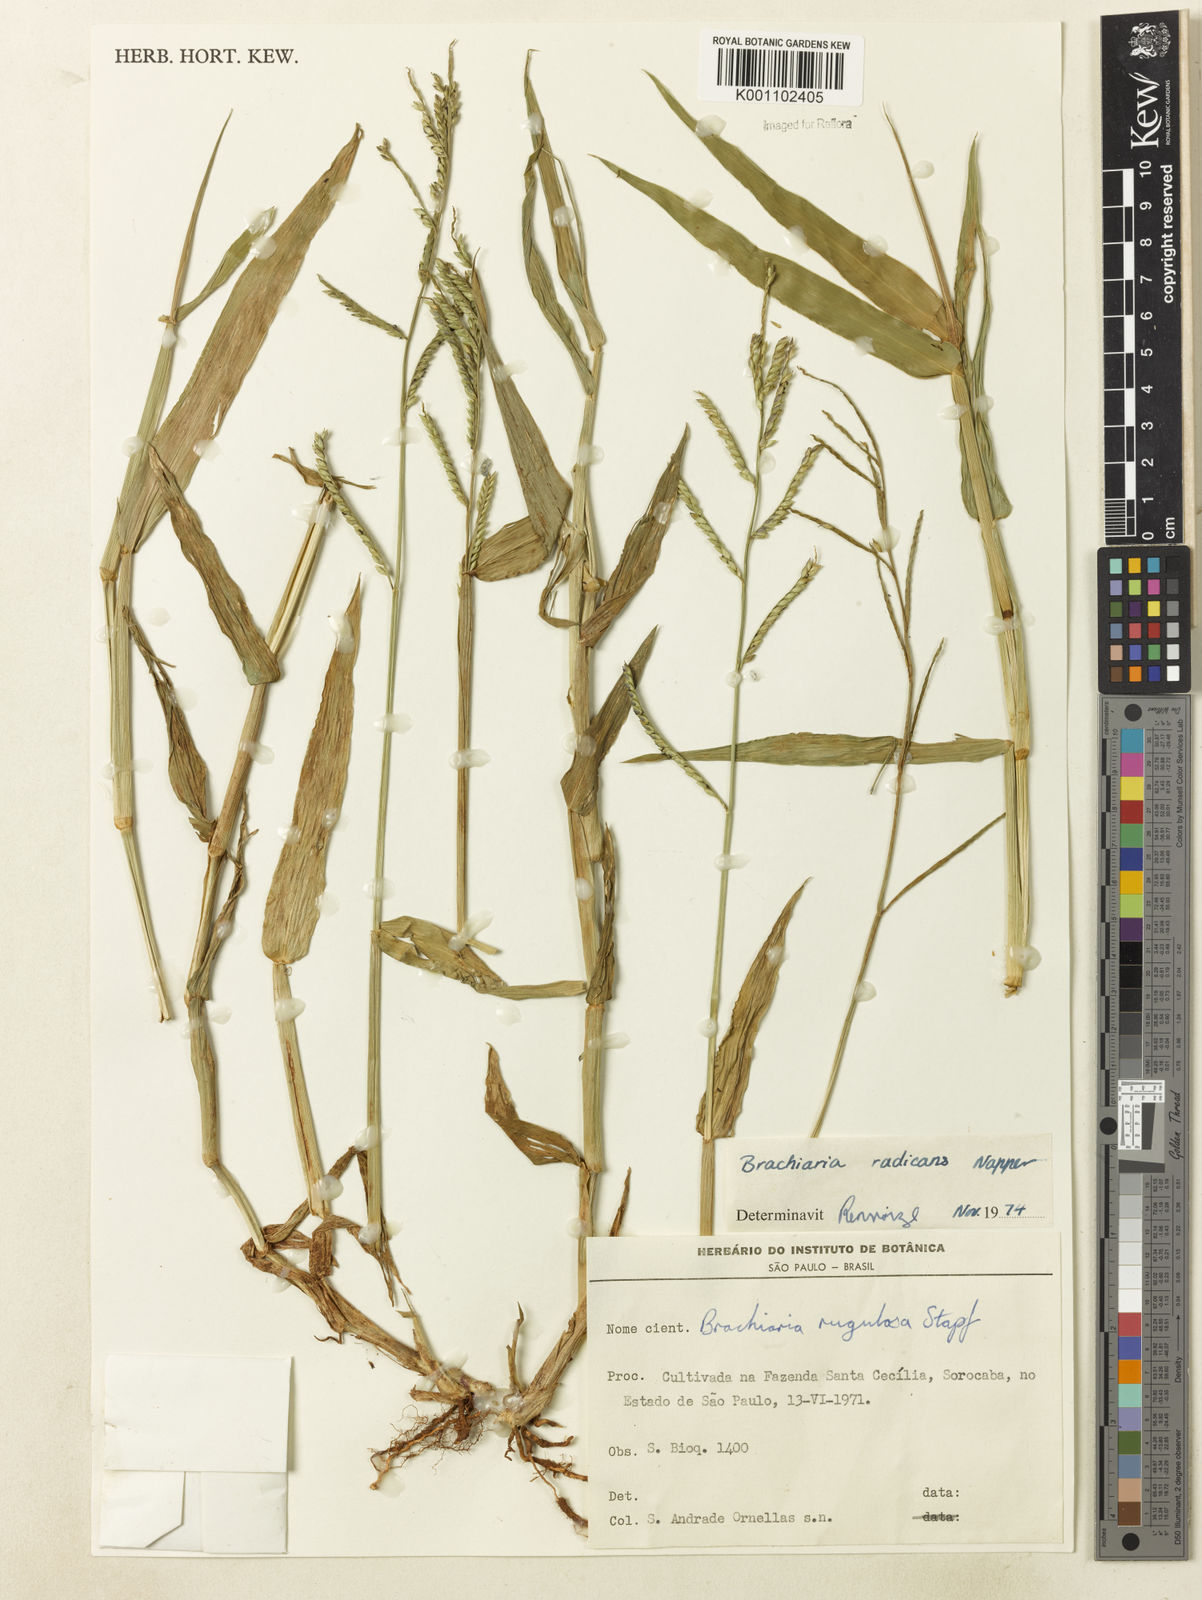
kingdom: Plantae
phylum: Tracheophyta
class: Liliopsida
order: Poales
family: Poaceae
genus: Urochloa
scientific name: Urochloa arrecta
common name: African signalgrass
